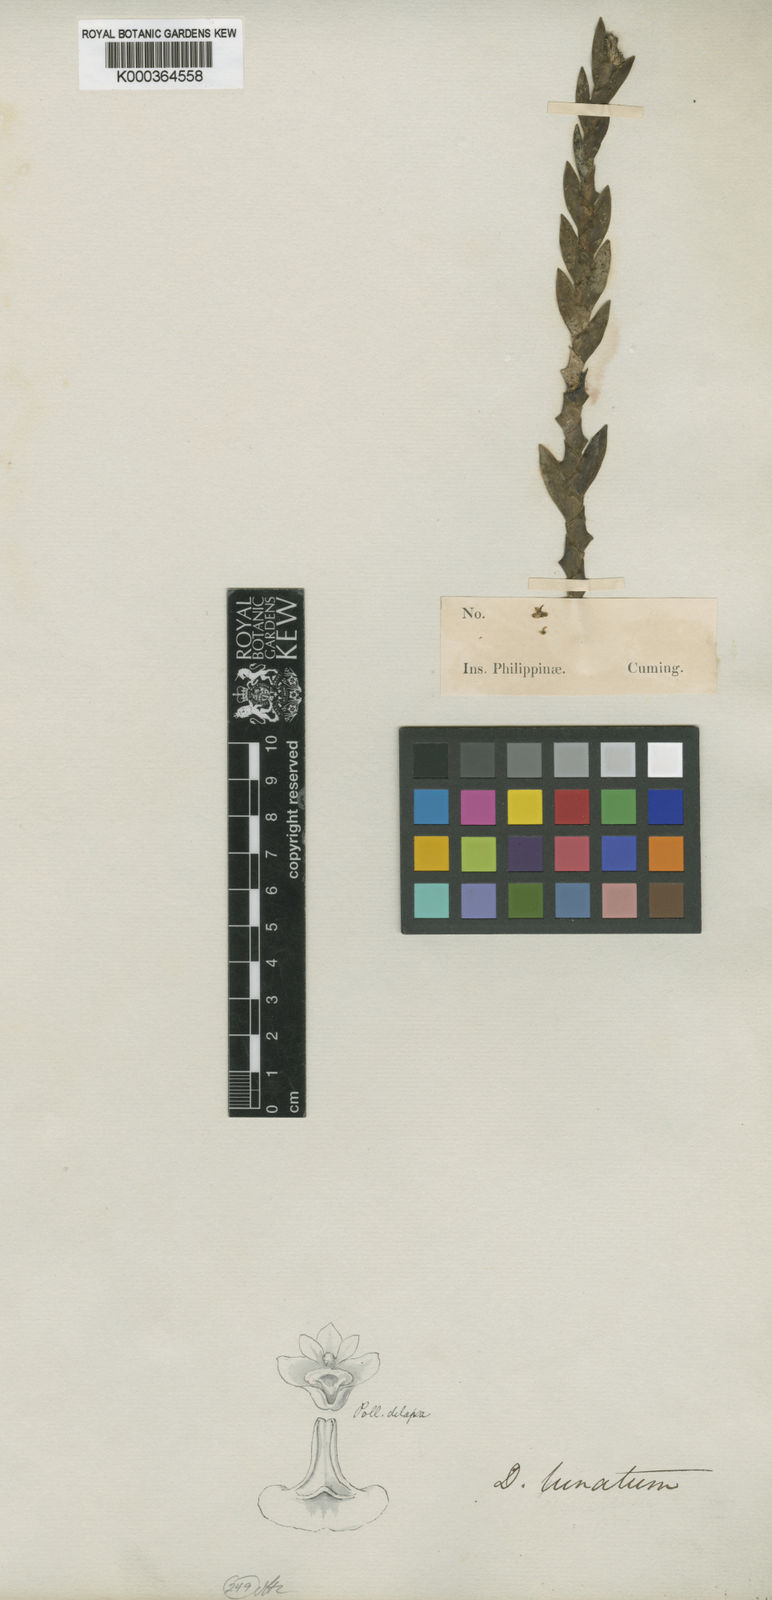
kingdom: Plantae
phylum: Tracheophyta
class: Liliopsida
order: Asparagales
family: Orchidaceae
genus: Dendrobium
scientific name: Dendrobium lunatum
